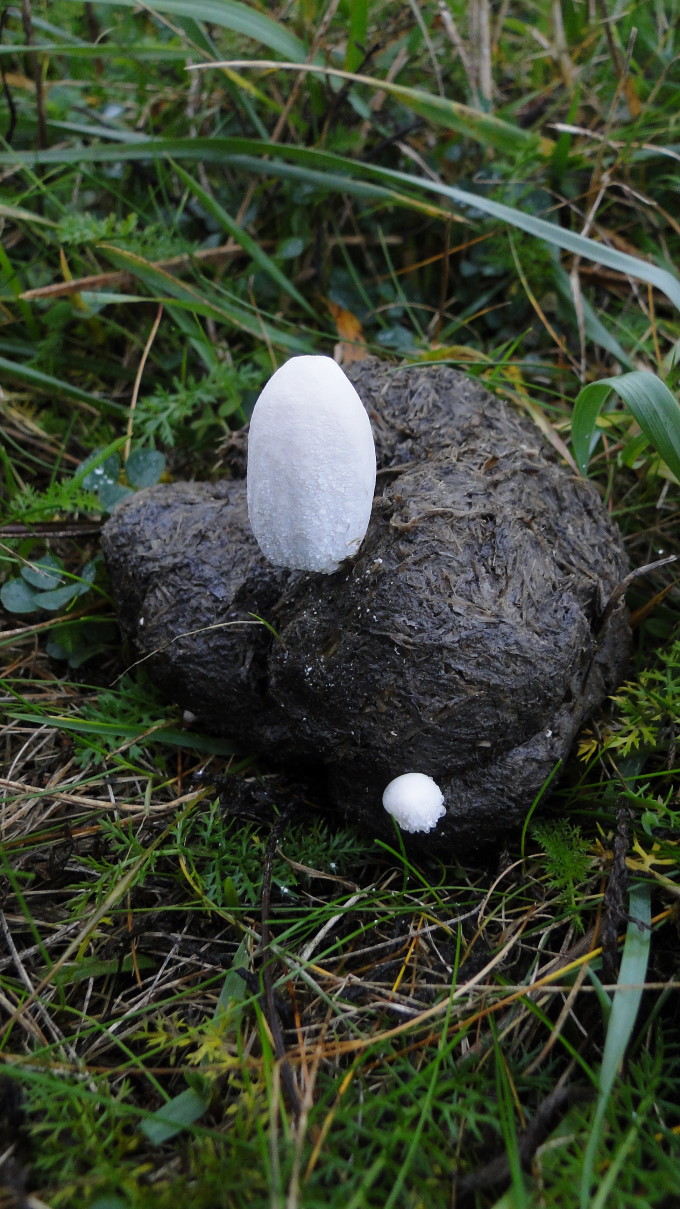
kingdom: Fungi
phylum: Basidiomycota
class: Agaricomycetes
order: Agaricales
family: Psathyrellaceae
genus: Coprinopsis
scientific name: Coprinopsis nivea
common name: snehvid blækhat
